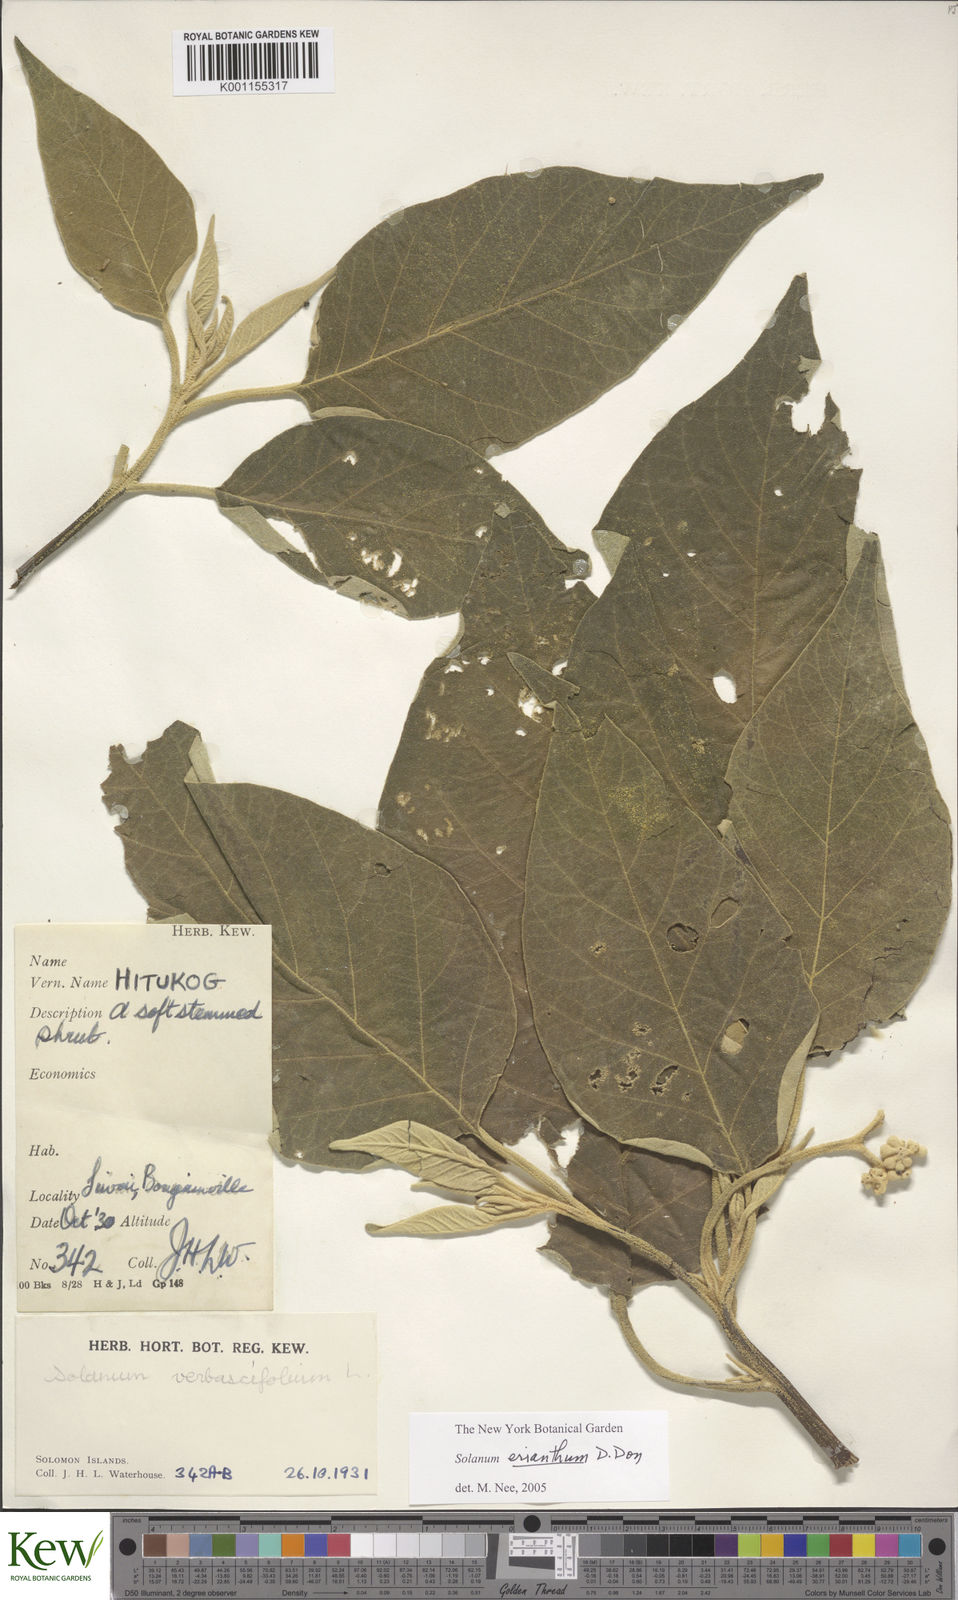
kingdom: Plantae
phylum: Tracheophyta
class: Magnoliopsida
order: Solanales
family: Solanaceae
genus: Solanum
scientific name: Solanum erianthum
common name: Tobacco-tree
